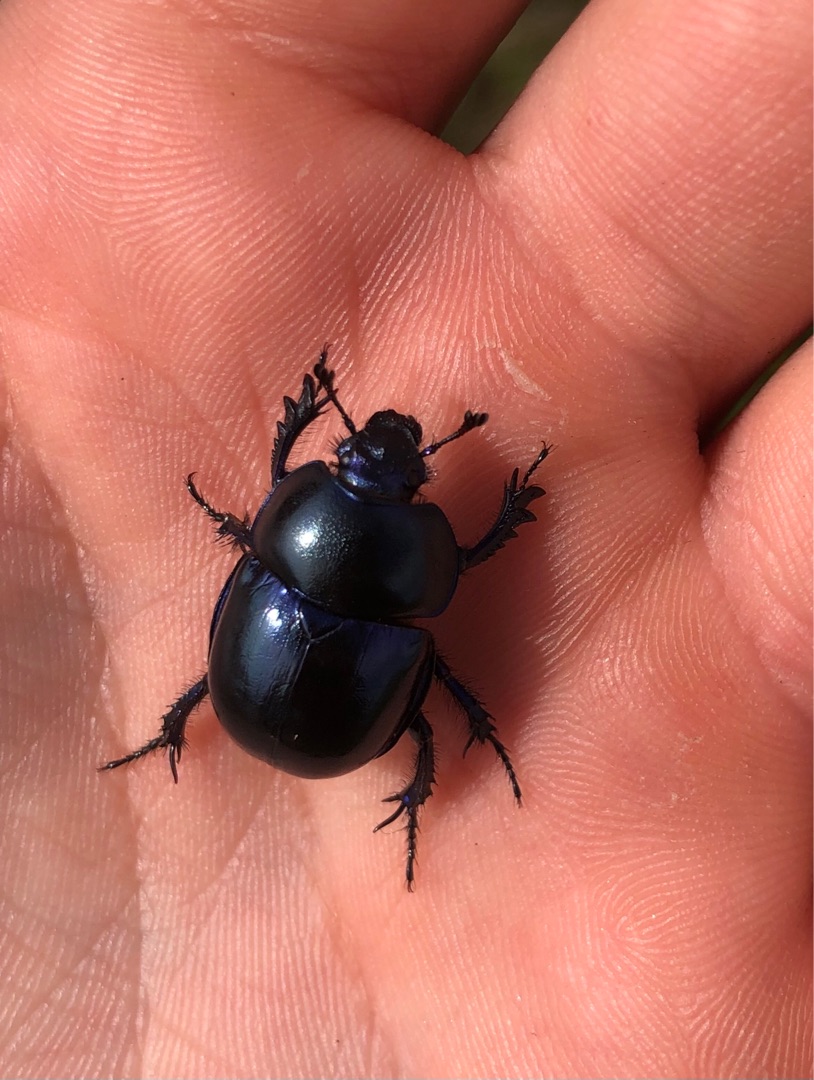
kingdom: Animalia
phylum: Arthropoda
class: Insecta
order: Coleoptera
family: Geotrupidae
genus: Trypocopris
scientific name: Trypocopris vernalis
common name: Glat skarnbasse
